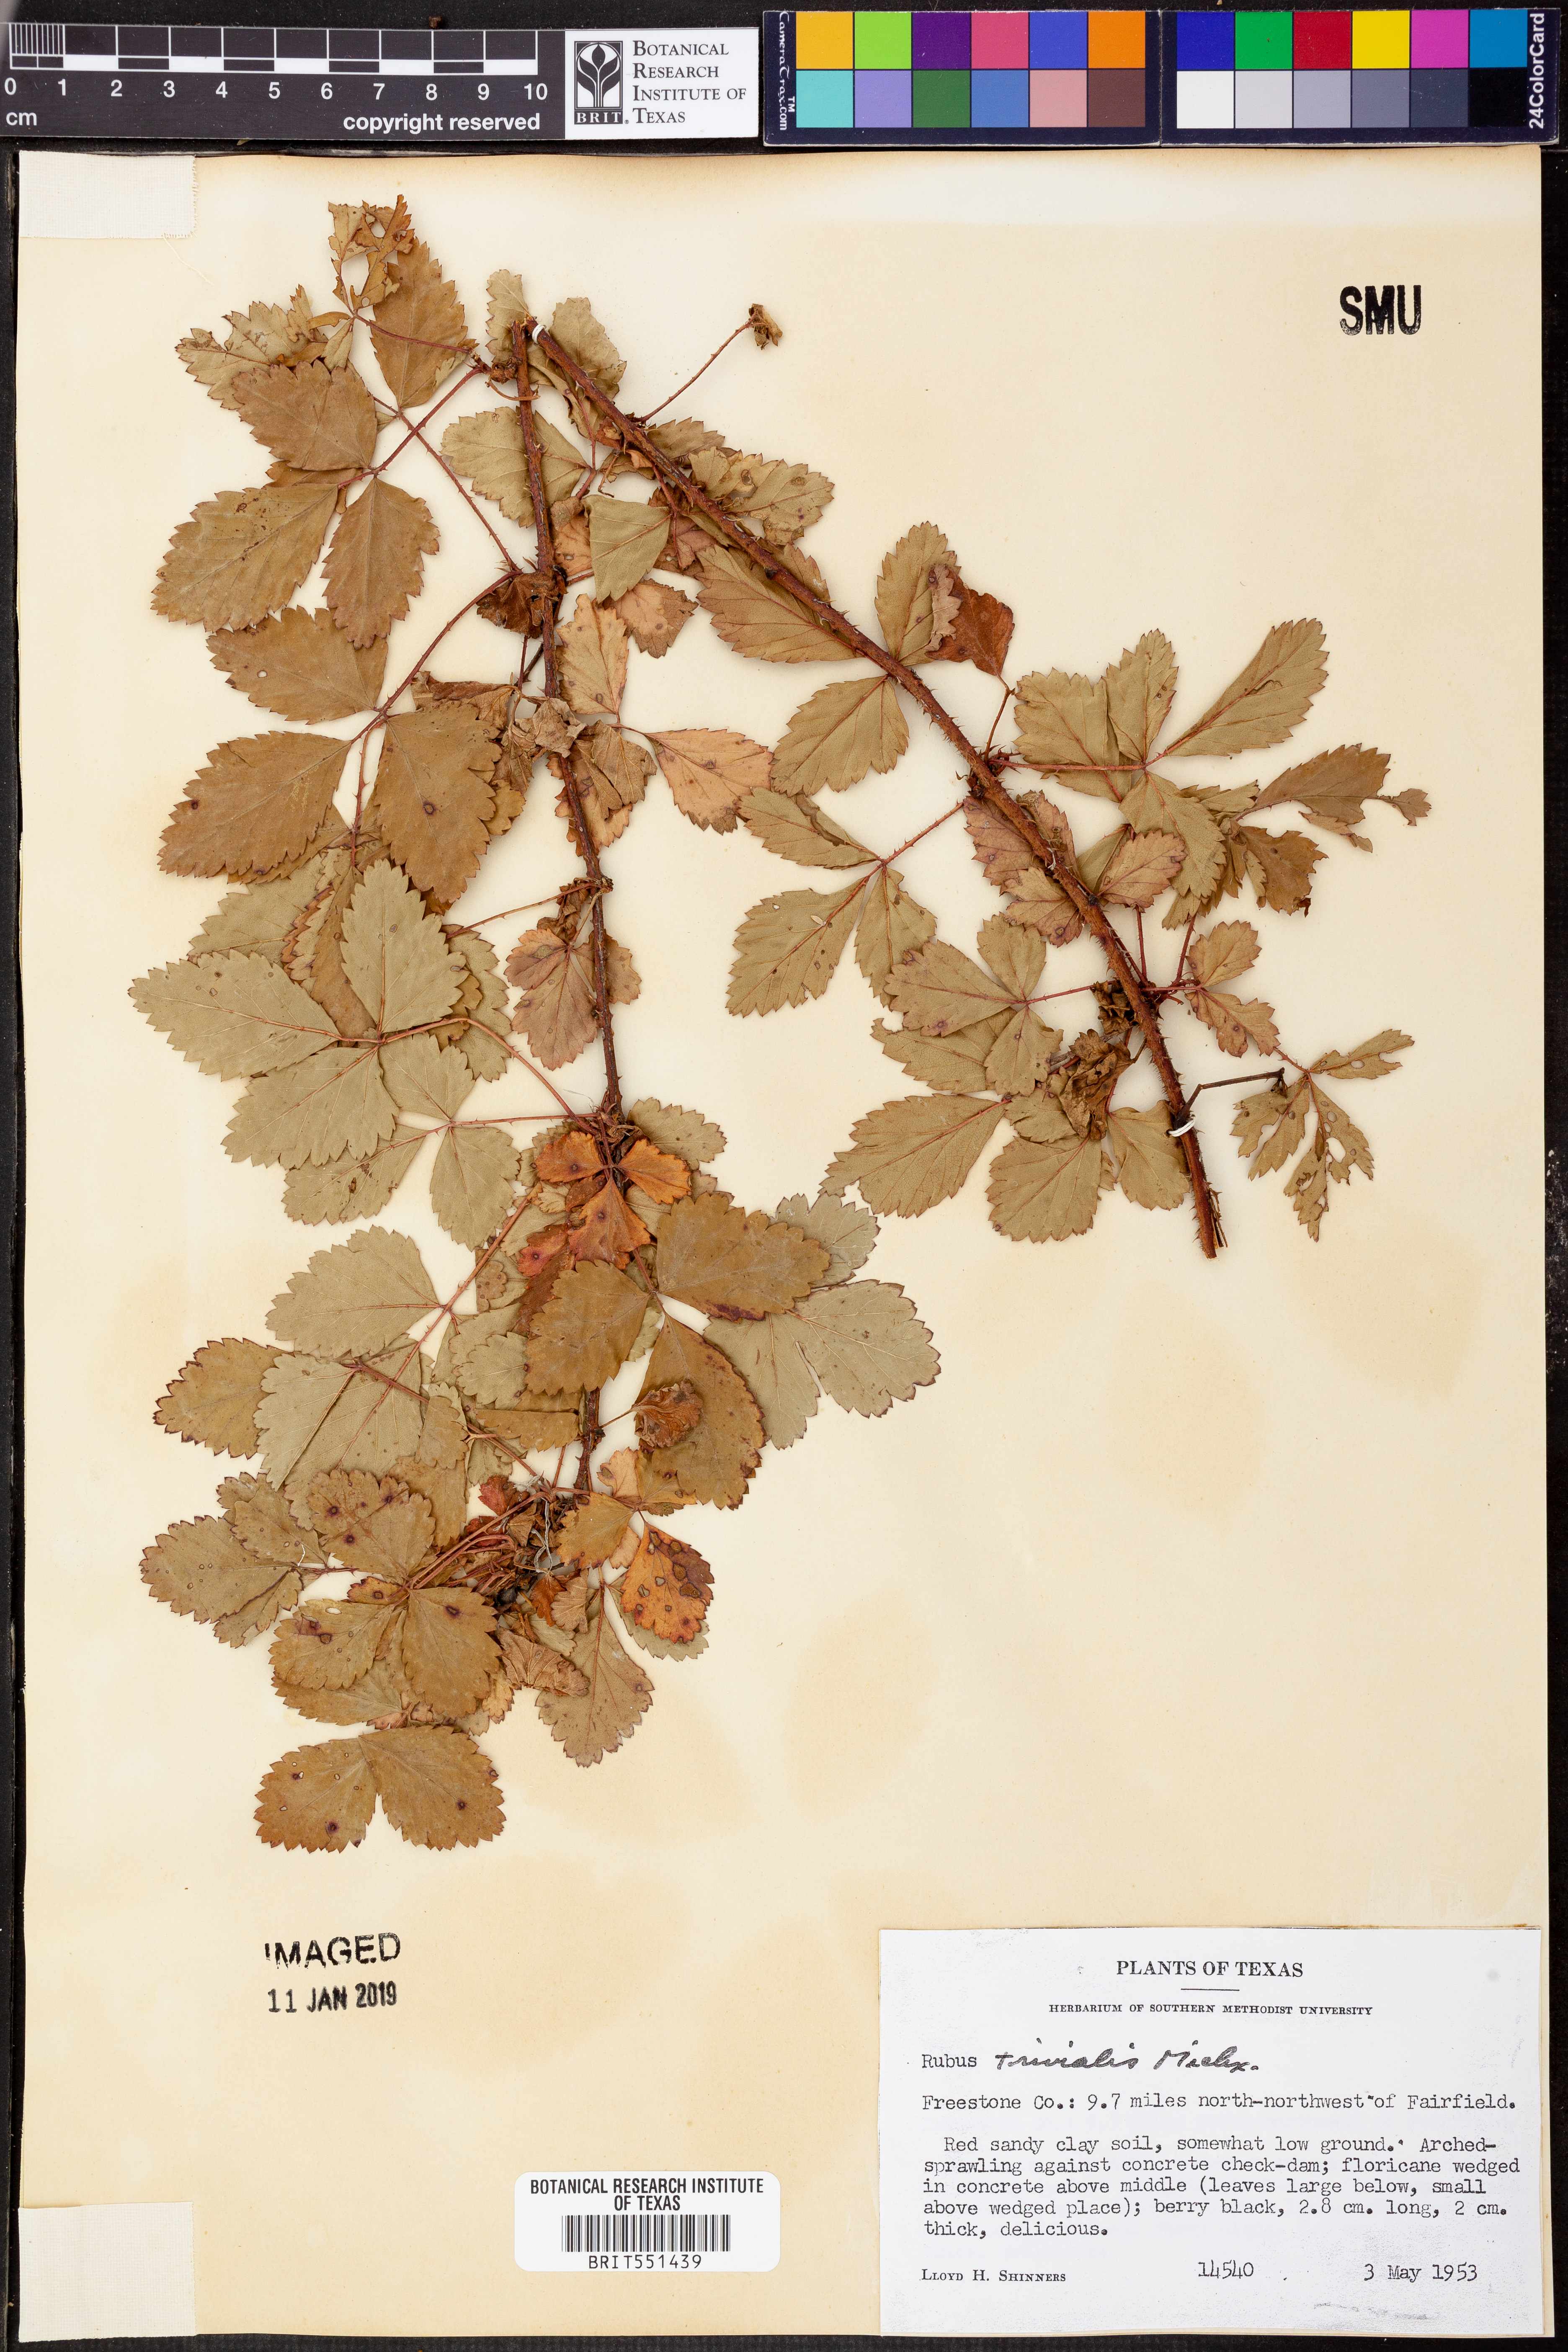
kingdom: Plantae
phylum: Tracheophyta
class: Magnoliopsida
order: Rosales
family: Rosaceae
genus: Rubus
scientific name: Rubus trivialis
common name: Southern dewberry
